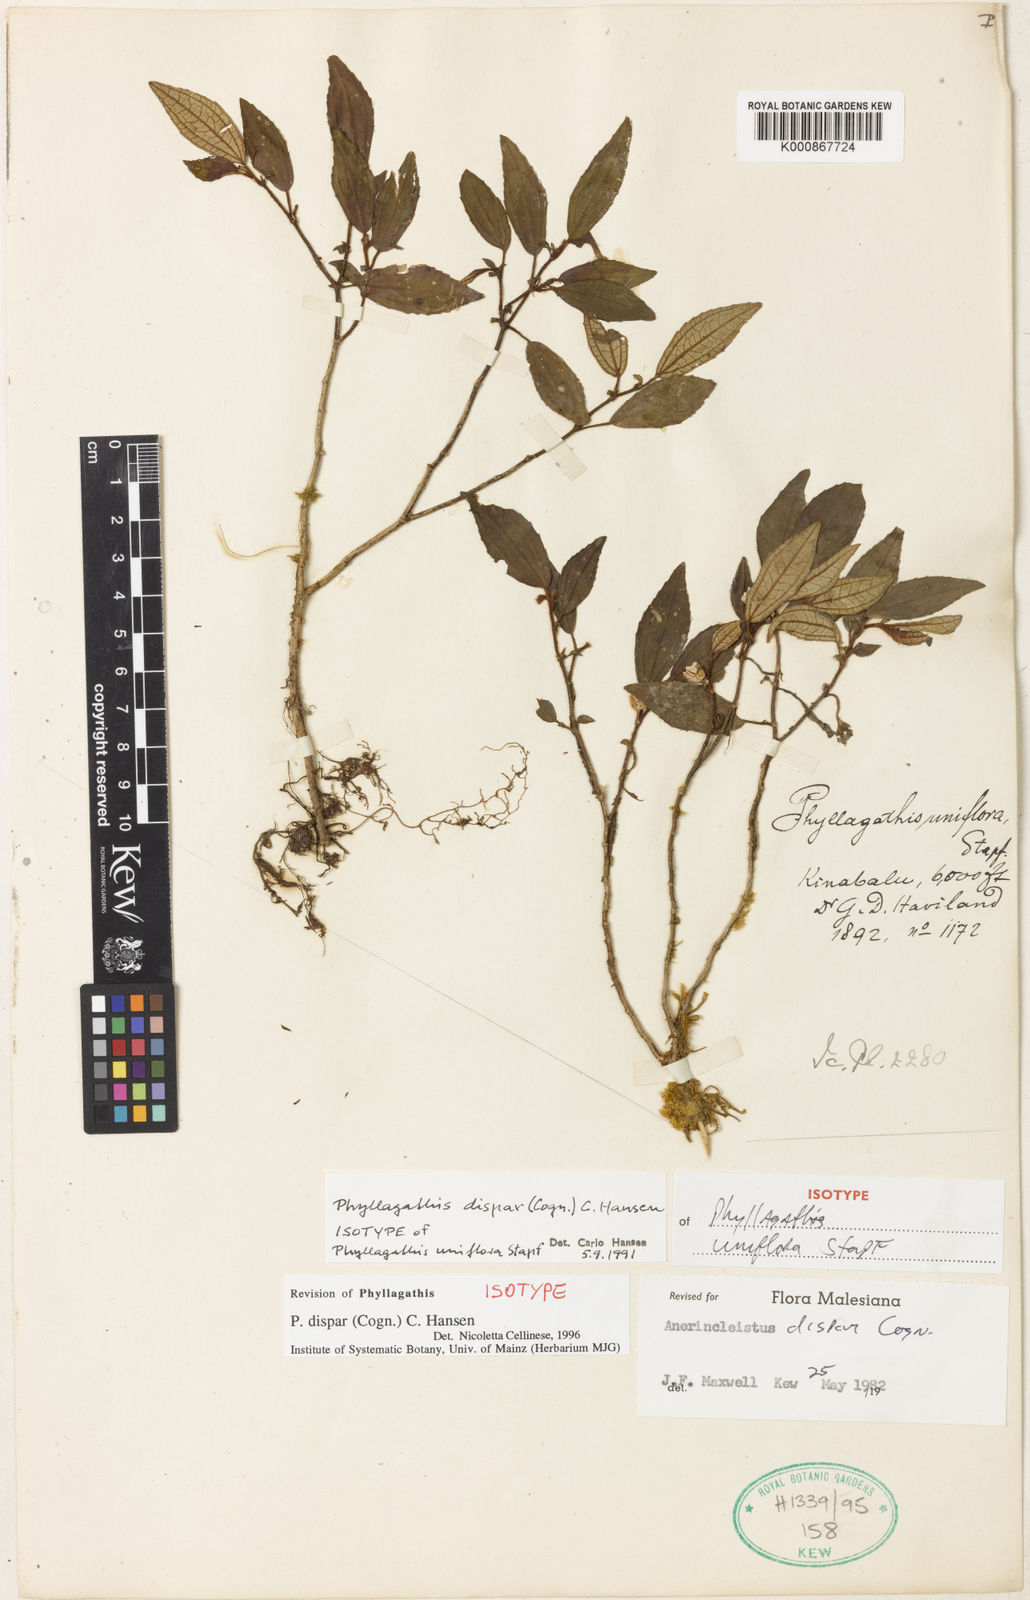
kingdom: Plantae
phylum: Tracheophyta
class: Magnoliopsida
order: Myrtales
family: Melastomataceae
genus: Anerincleistus
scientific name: Anerincleistus dispar
